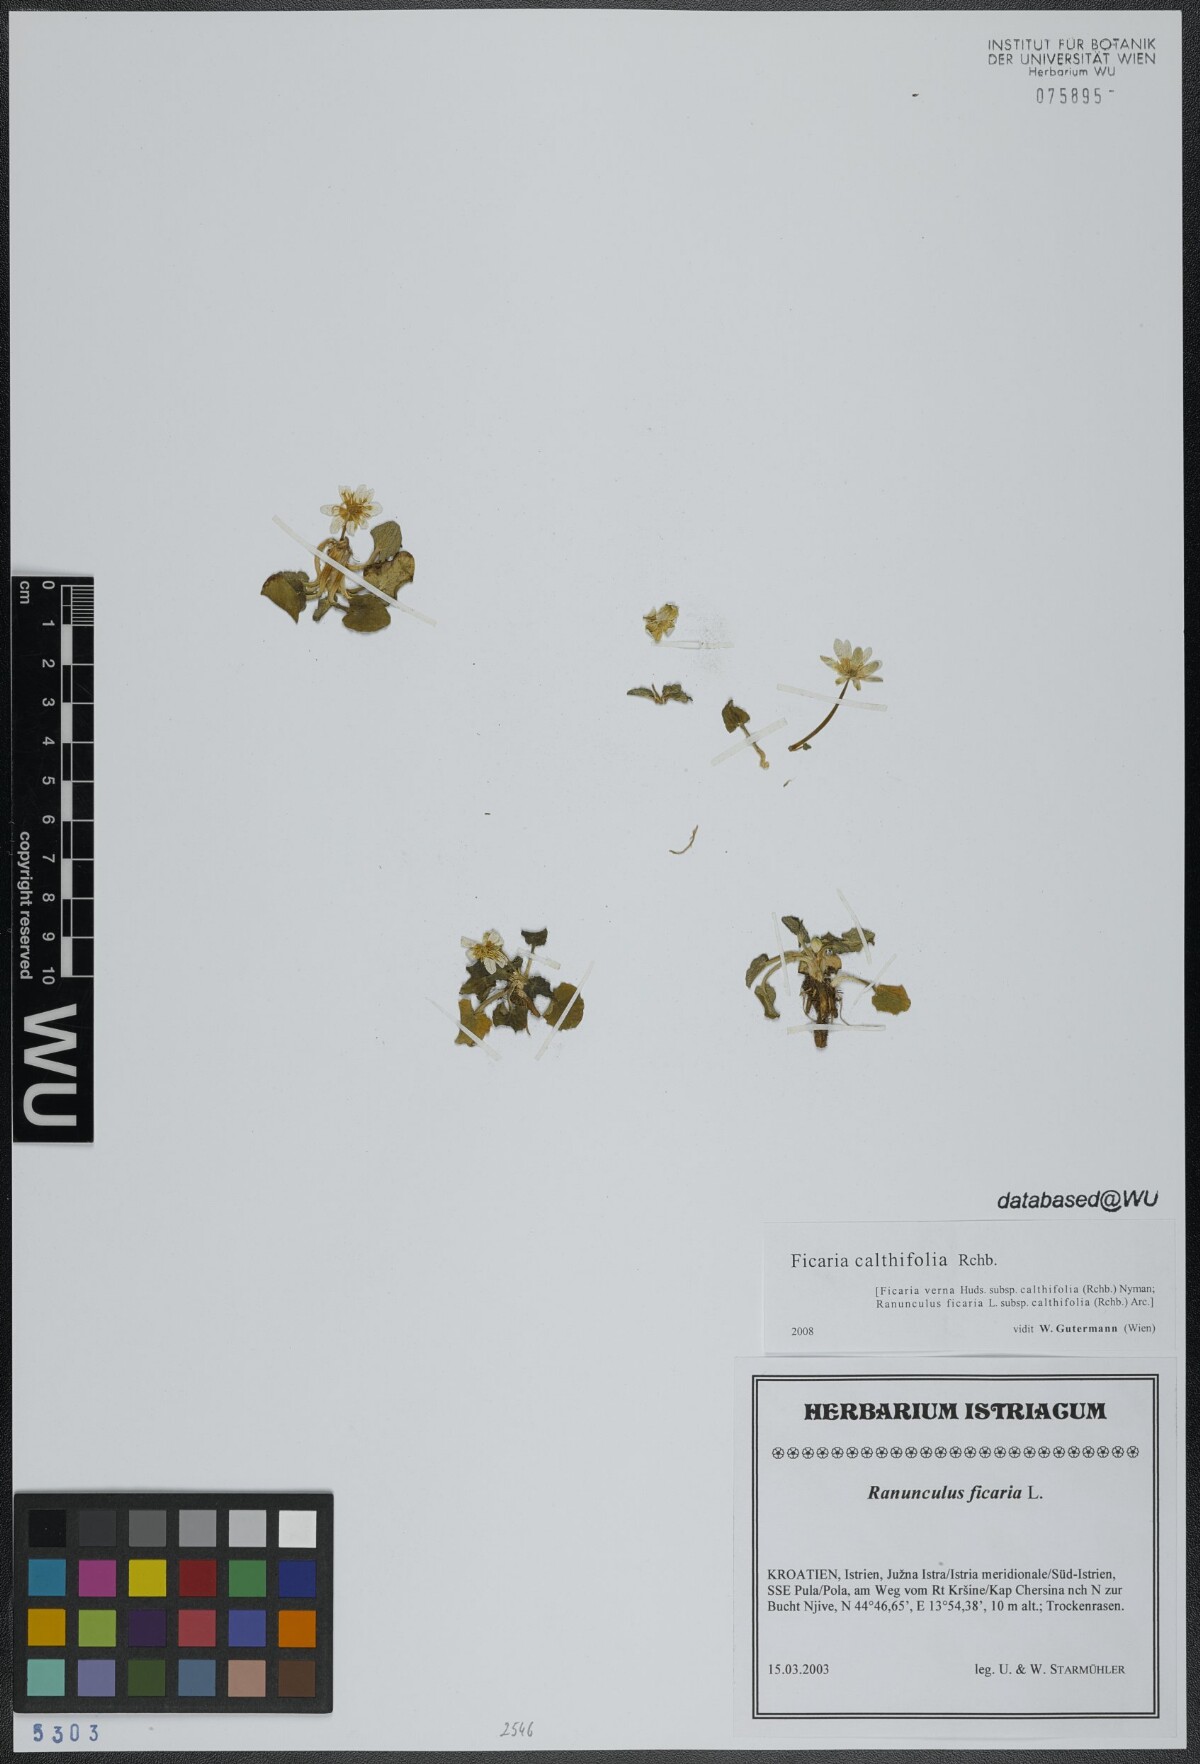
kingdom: Plantae
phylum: Tracheophyta
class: Magnoliopsida
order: Ranunculales
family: Ranunculaceae
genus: Ficaria
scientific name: Ficaria calthifolia
